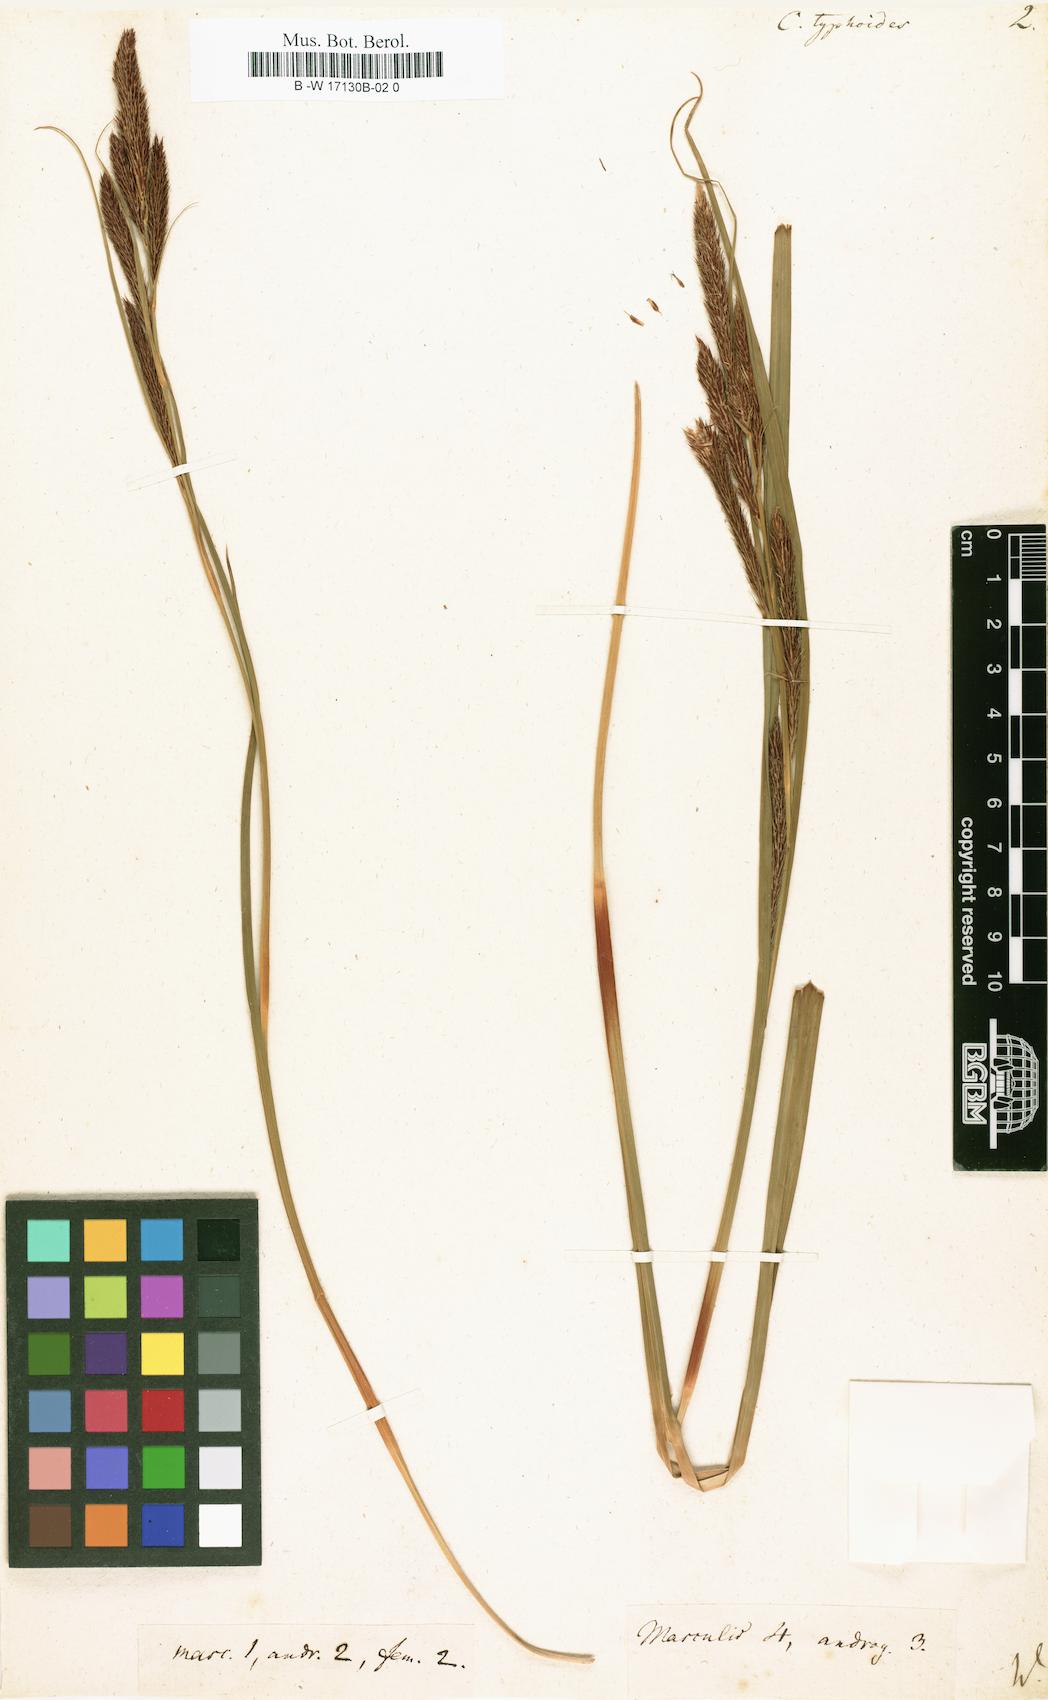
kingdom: Plantae
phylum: Tracheophyta
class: Liliopsida
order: Poales
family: Cyperaceae
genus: Carex
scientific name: Carex borbonica
